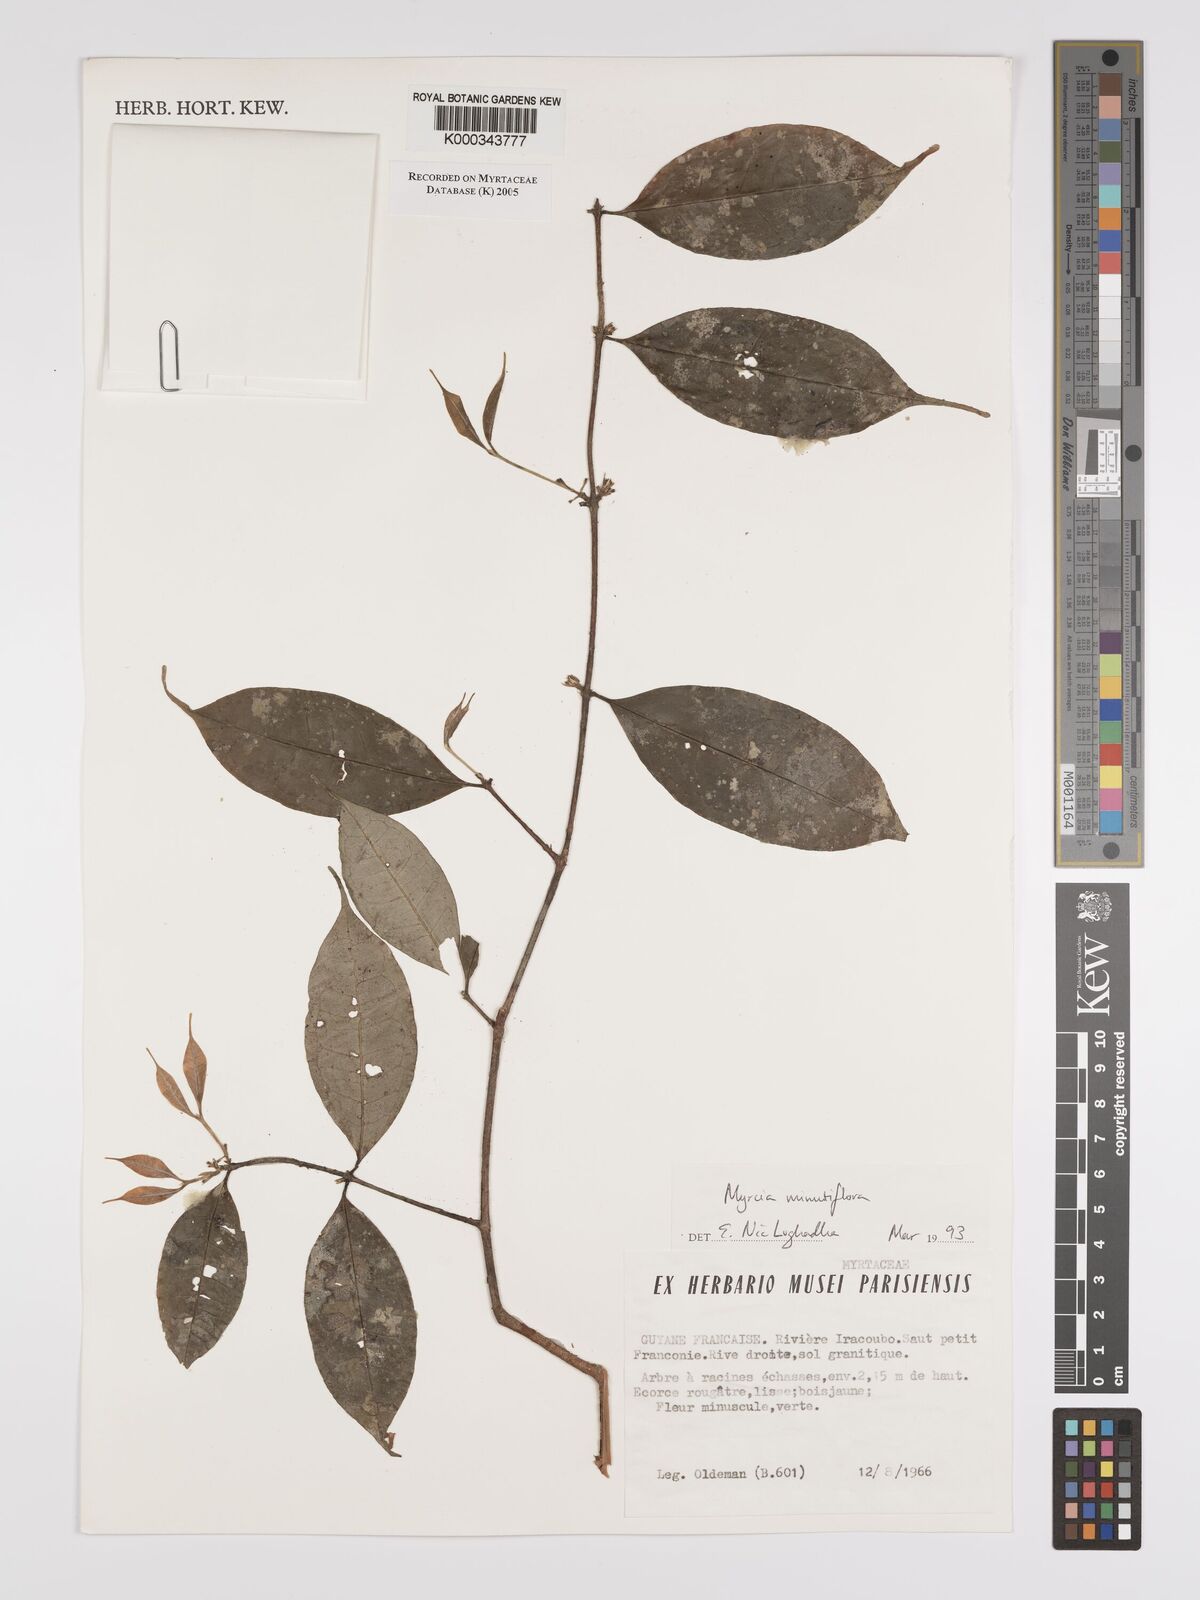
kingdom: Plantae
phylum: Tracheophyta
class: Magnoliopsida
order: Myrtales
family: Myrtaceae
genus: Myrcia
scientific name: Myrcia minutiflora
